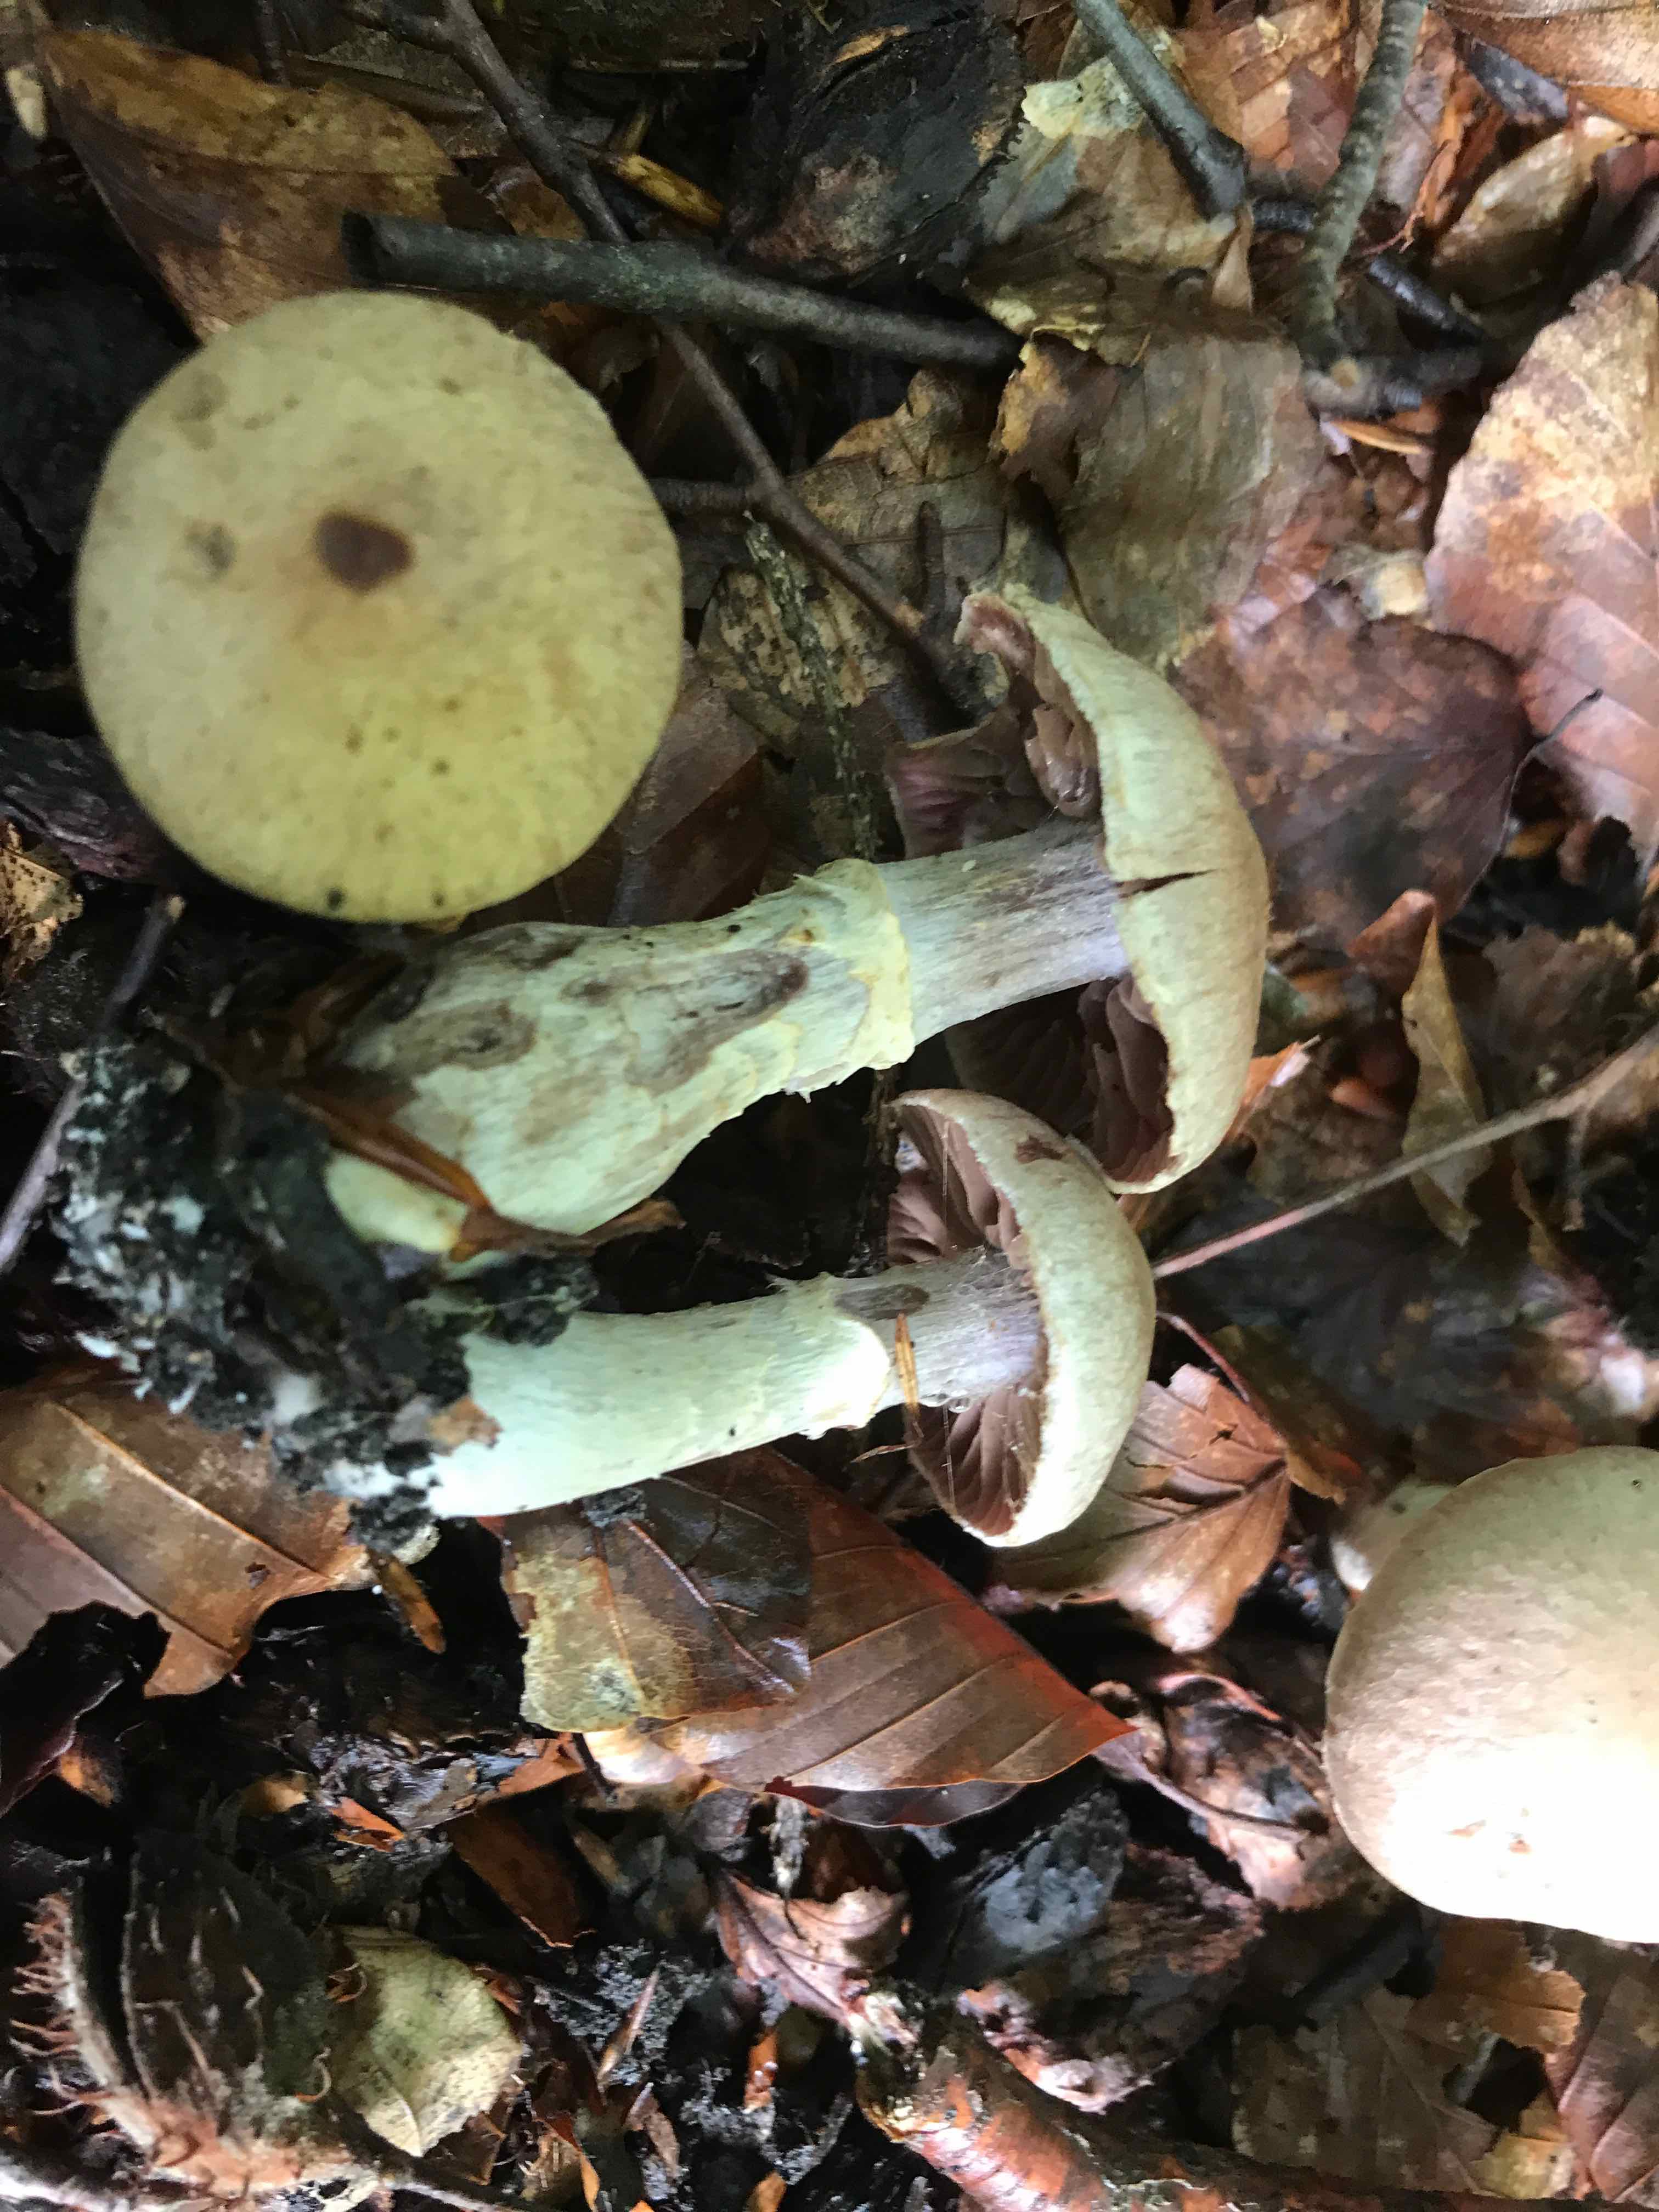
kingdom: Fungi
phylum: Basidiomycota
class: Agaricomycetes
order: Agaricales
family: Cortinariaceae
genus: Cortinarius
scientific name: Cortinarius torvus
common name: champignonagtig slørhat
